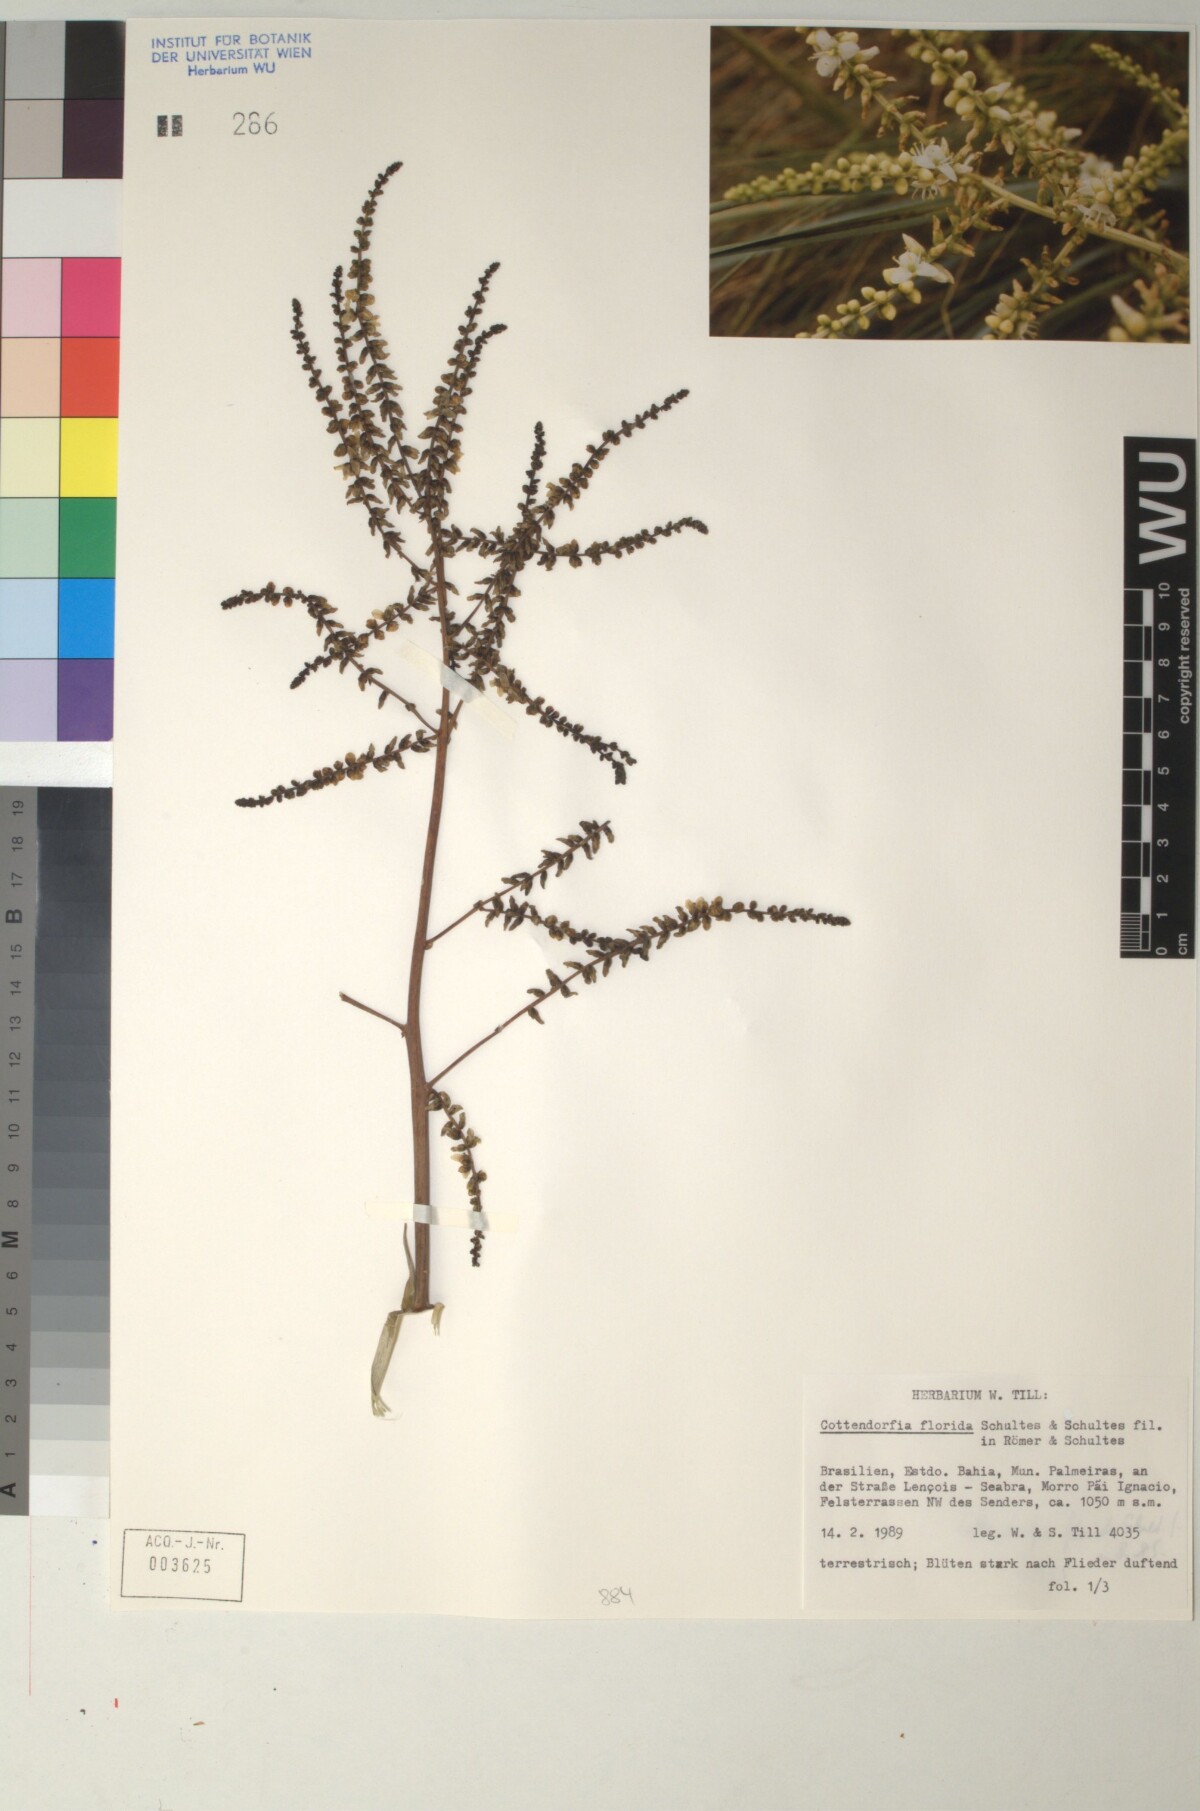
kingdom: Plantae
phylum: Tracheophyta
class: Liliopsida
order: Poales
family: Bromeliaceae
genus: Cottendorfia
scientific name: Cottendorfia florida
